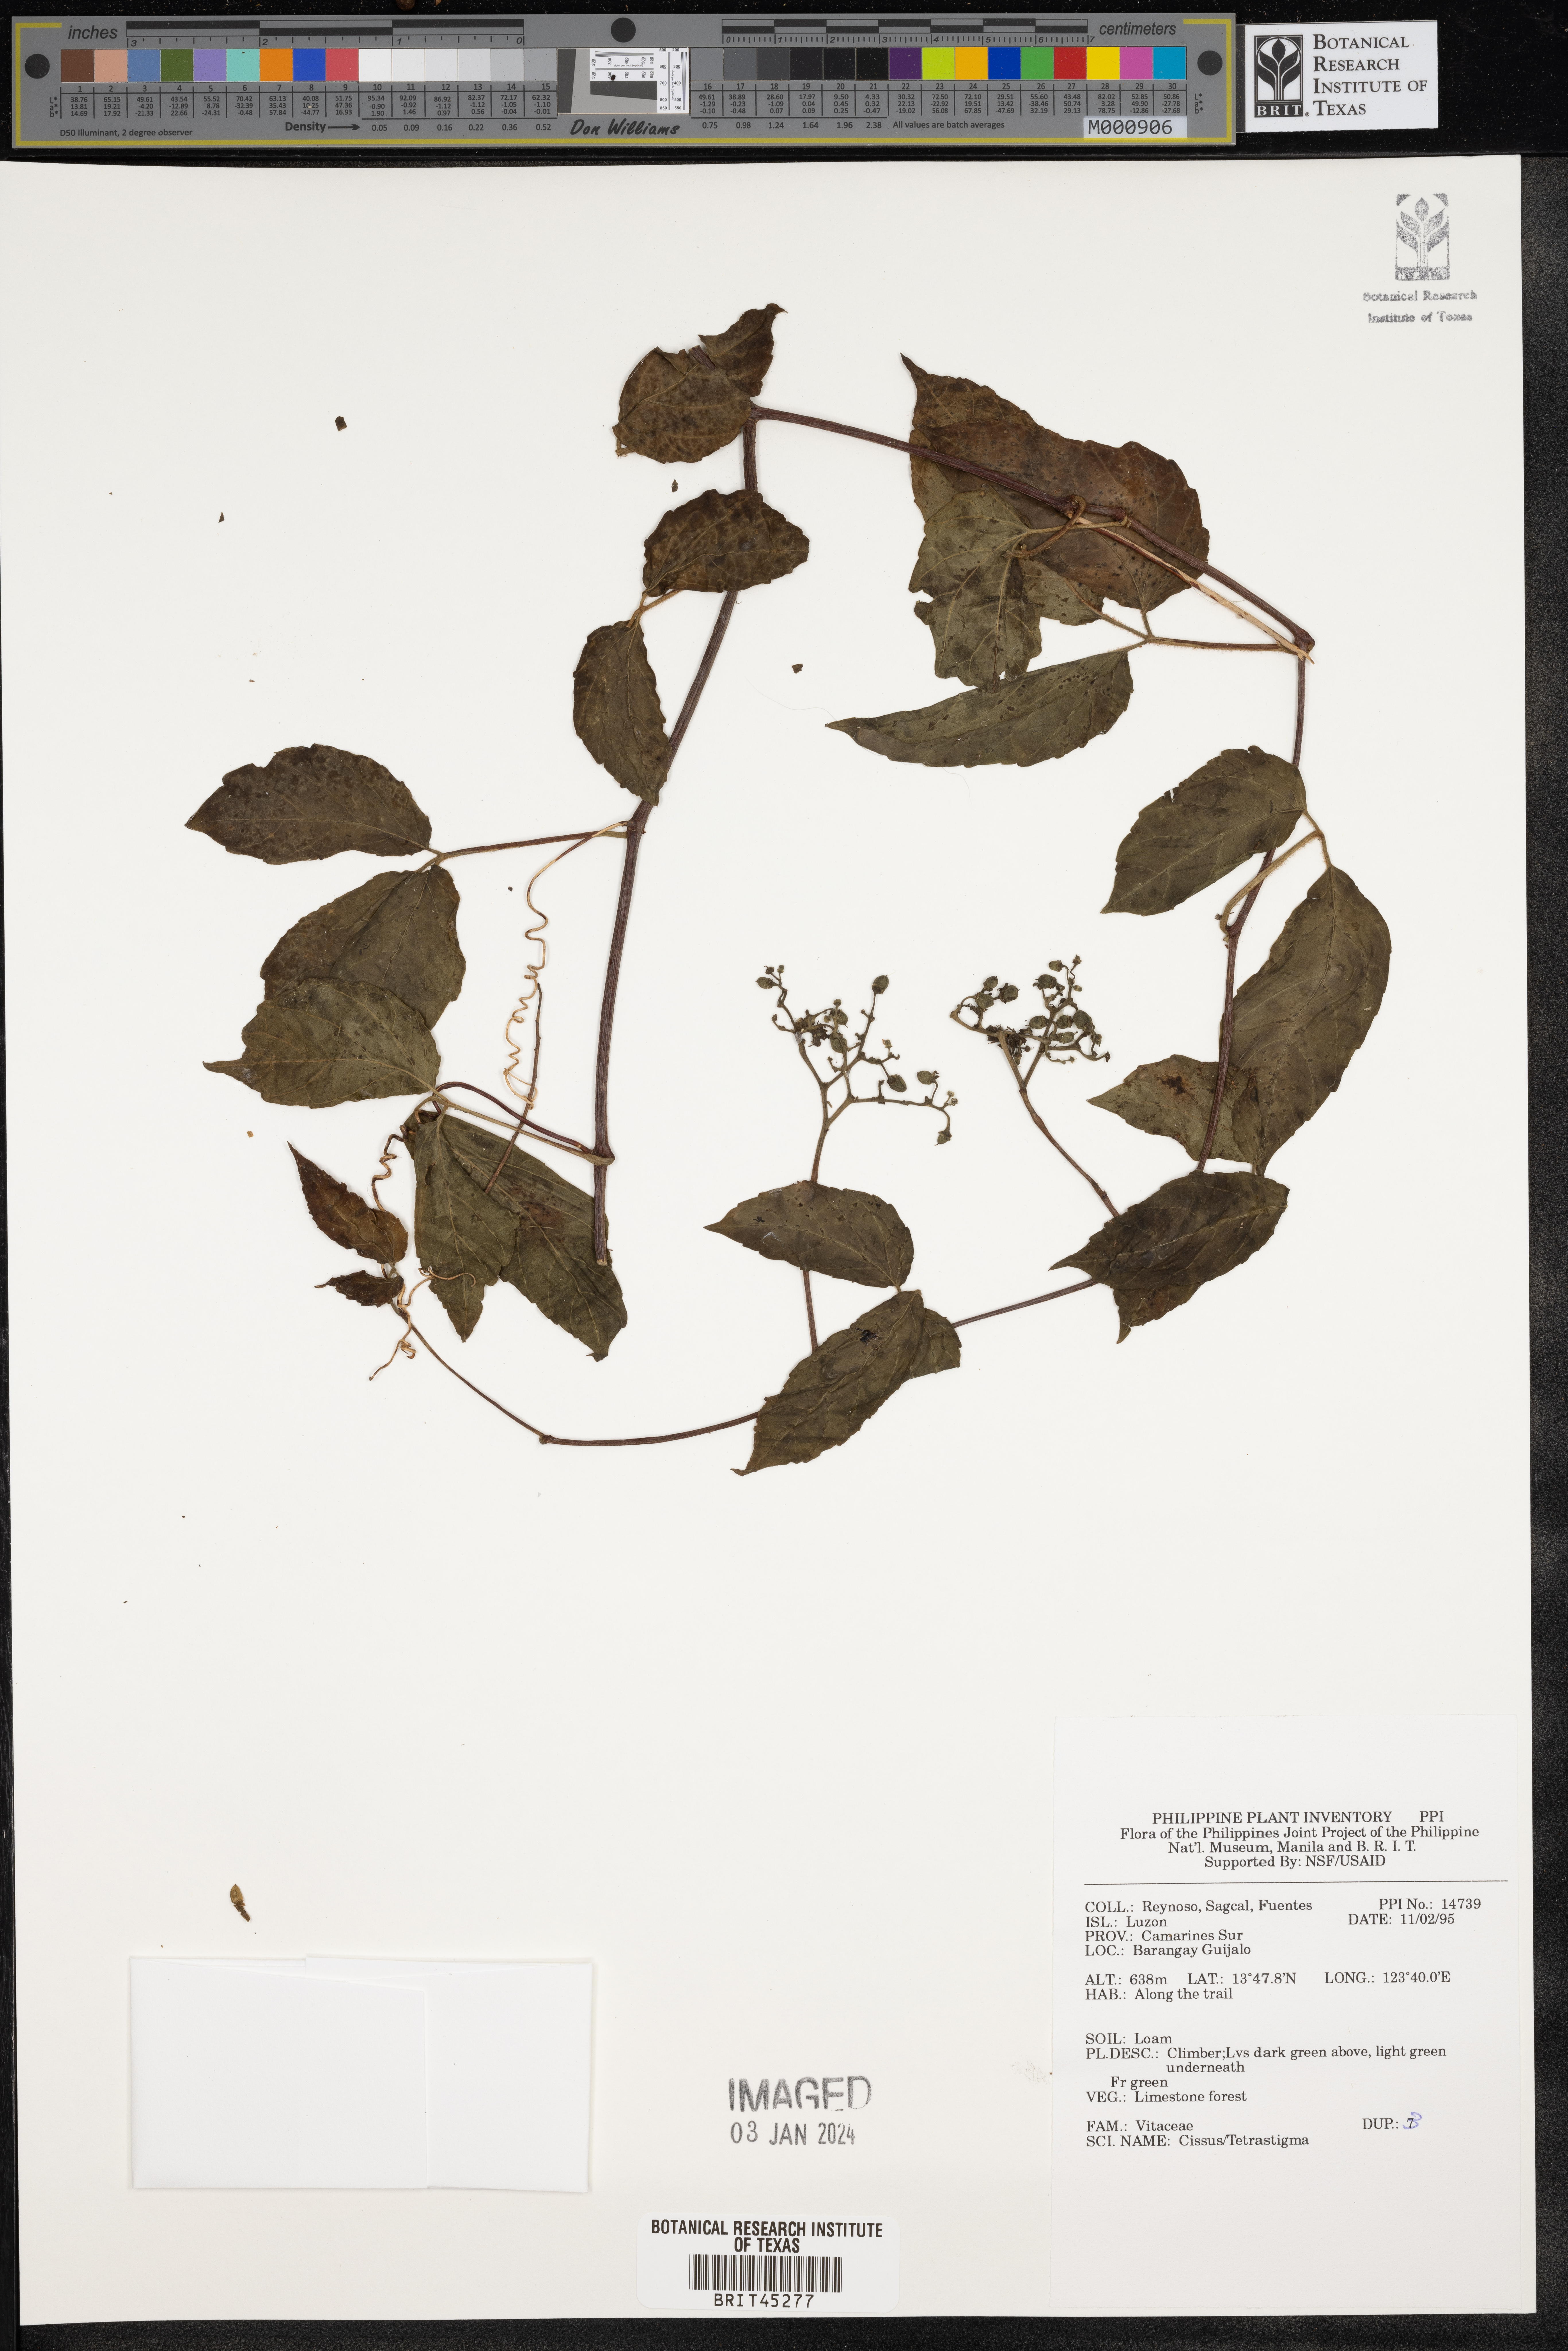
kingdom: Plantae
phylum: Tracheophyta
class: Magnoliopsida
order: Vitales
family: Vitaceae
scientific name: Vitaceae
